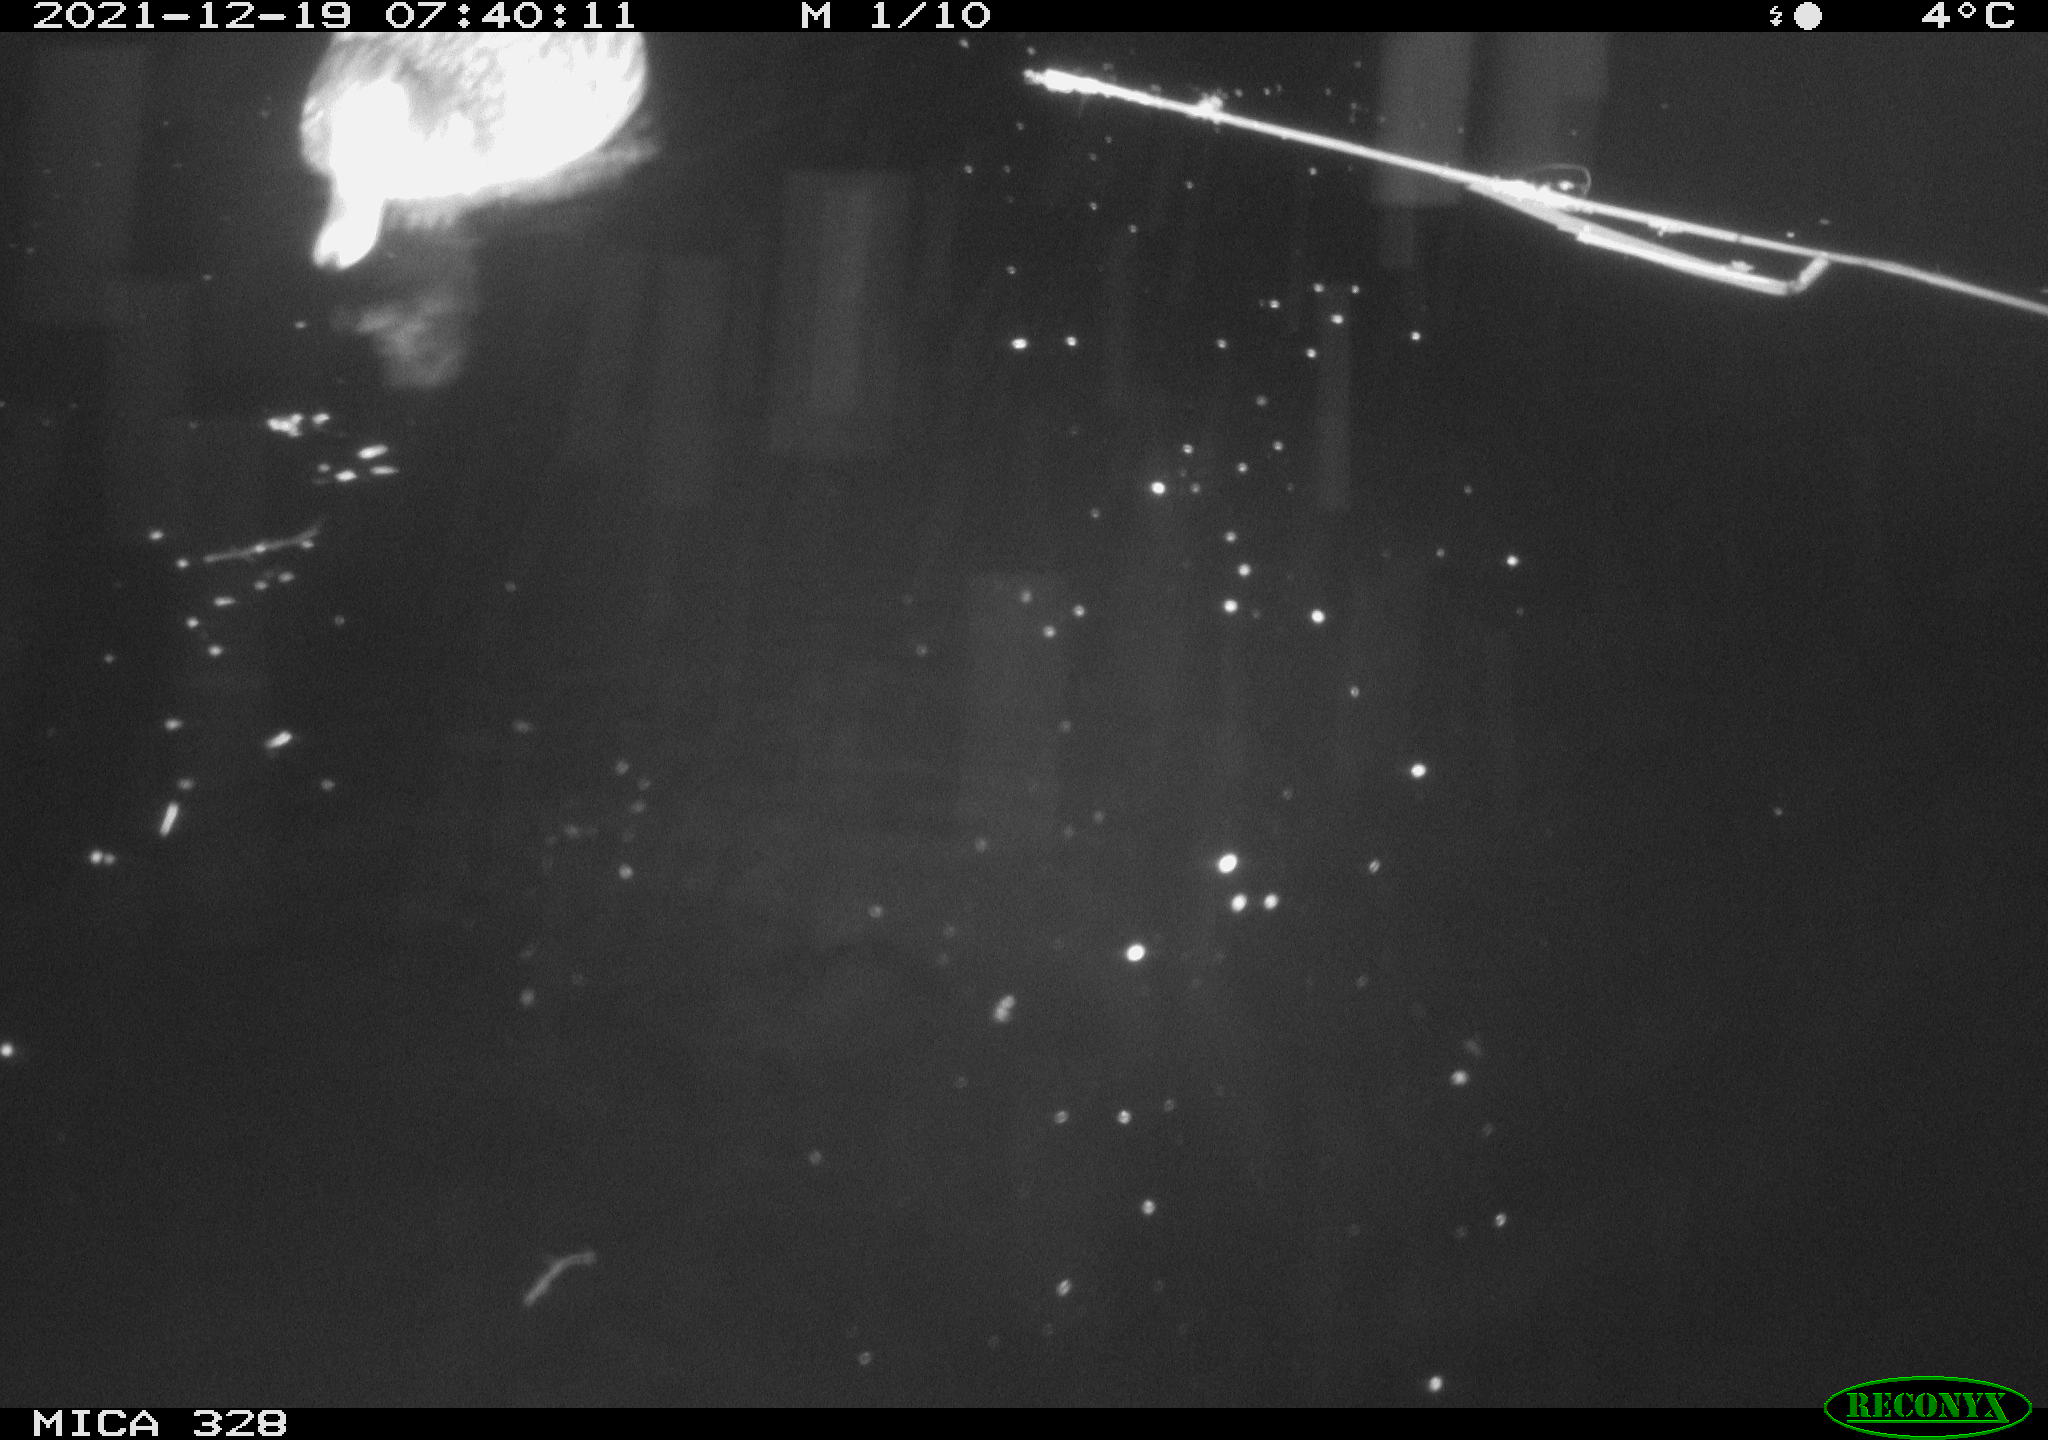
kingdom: Animalia
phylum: Chordata
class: Aves
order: Anseriformes
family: Anatidae
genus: Anas
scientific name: Anas platyrhynchos
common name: Mallard
